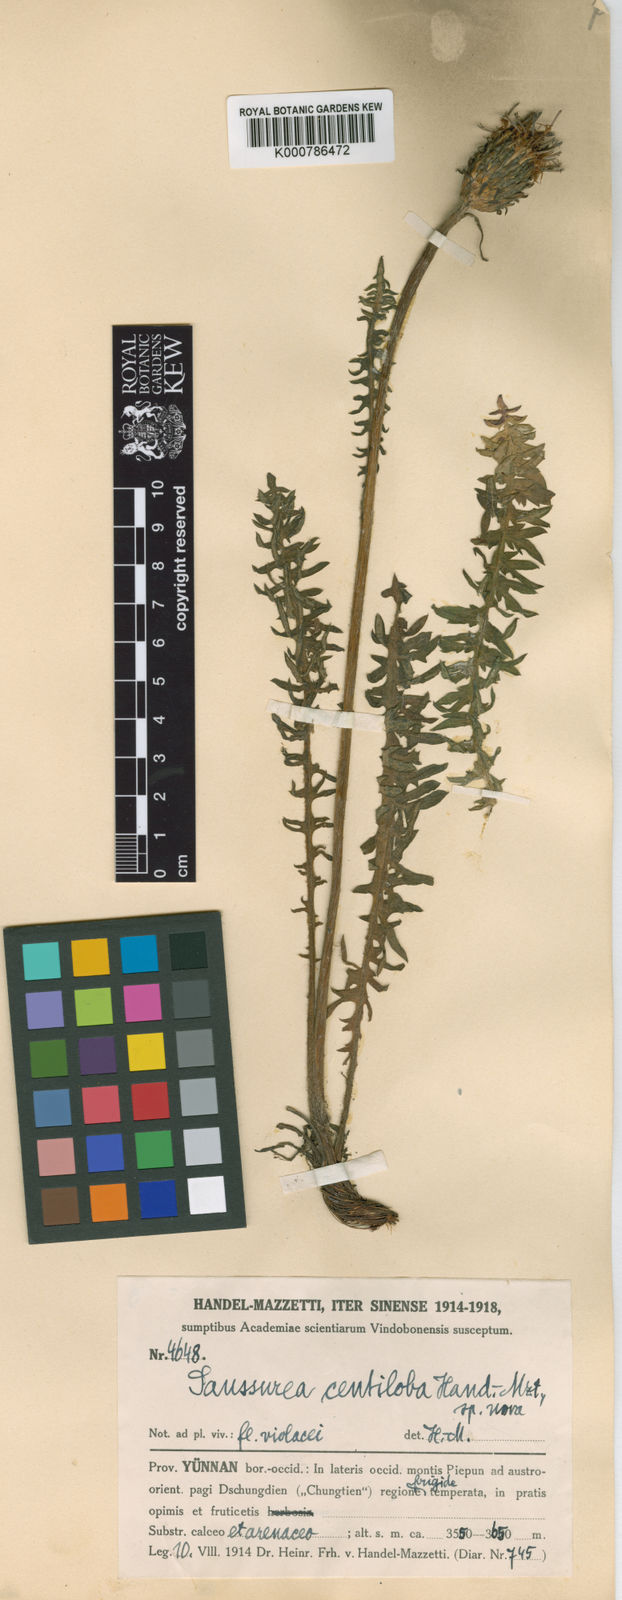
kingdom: Plantae
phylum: Tracheophyta
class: Magnoliopsida
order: Asterales
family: Asteraceae
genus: Saussurea
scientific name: Saussurea centiloba
